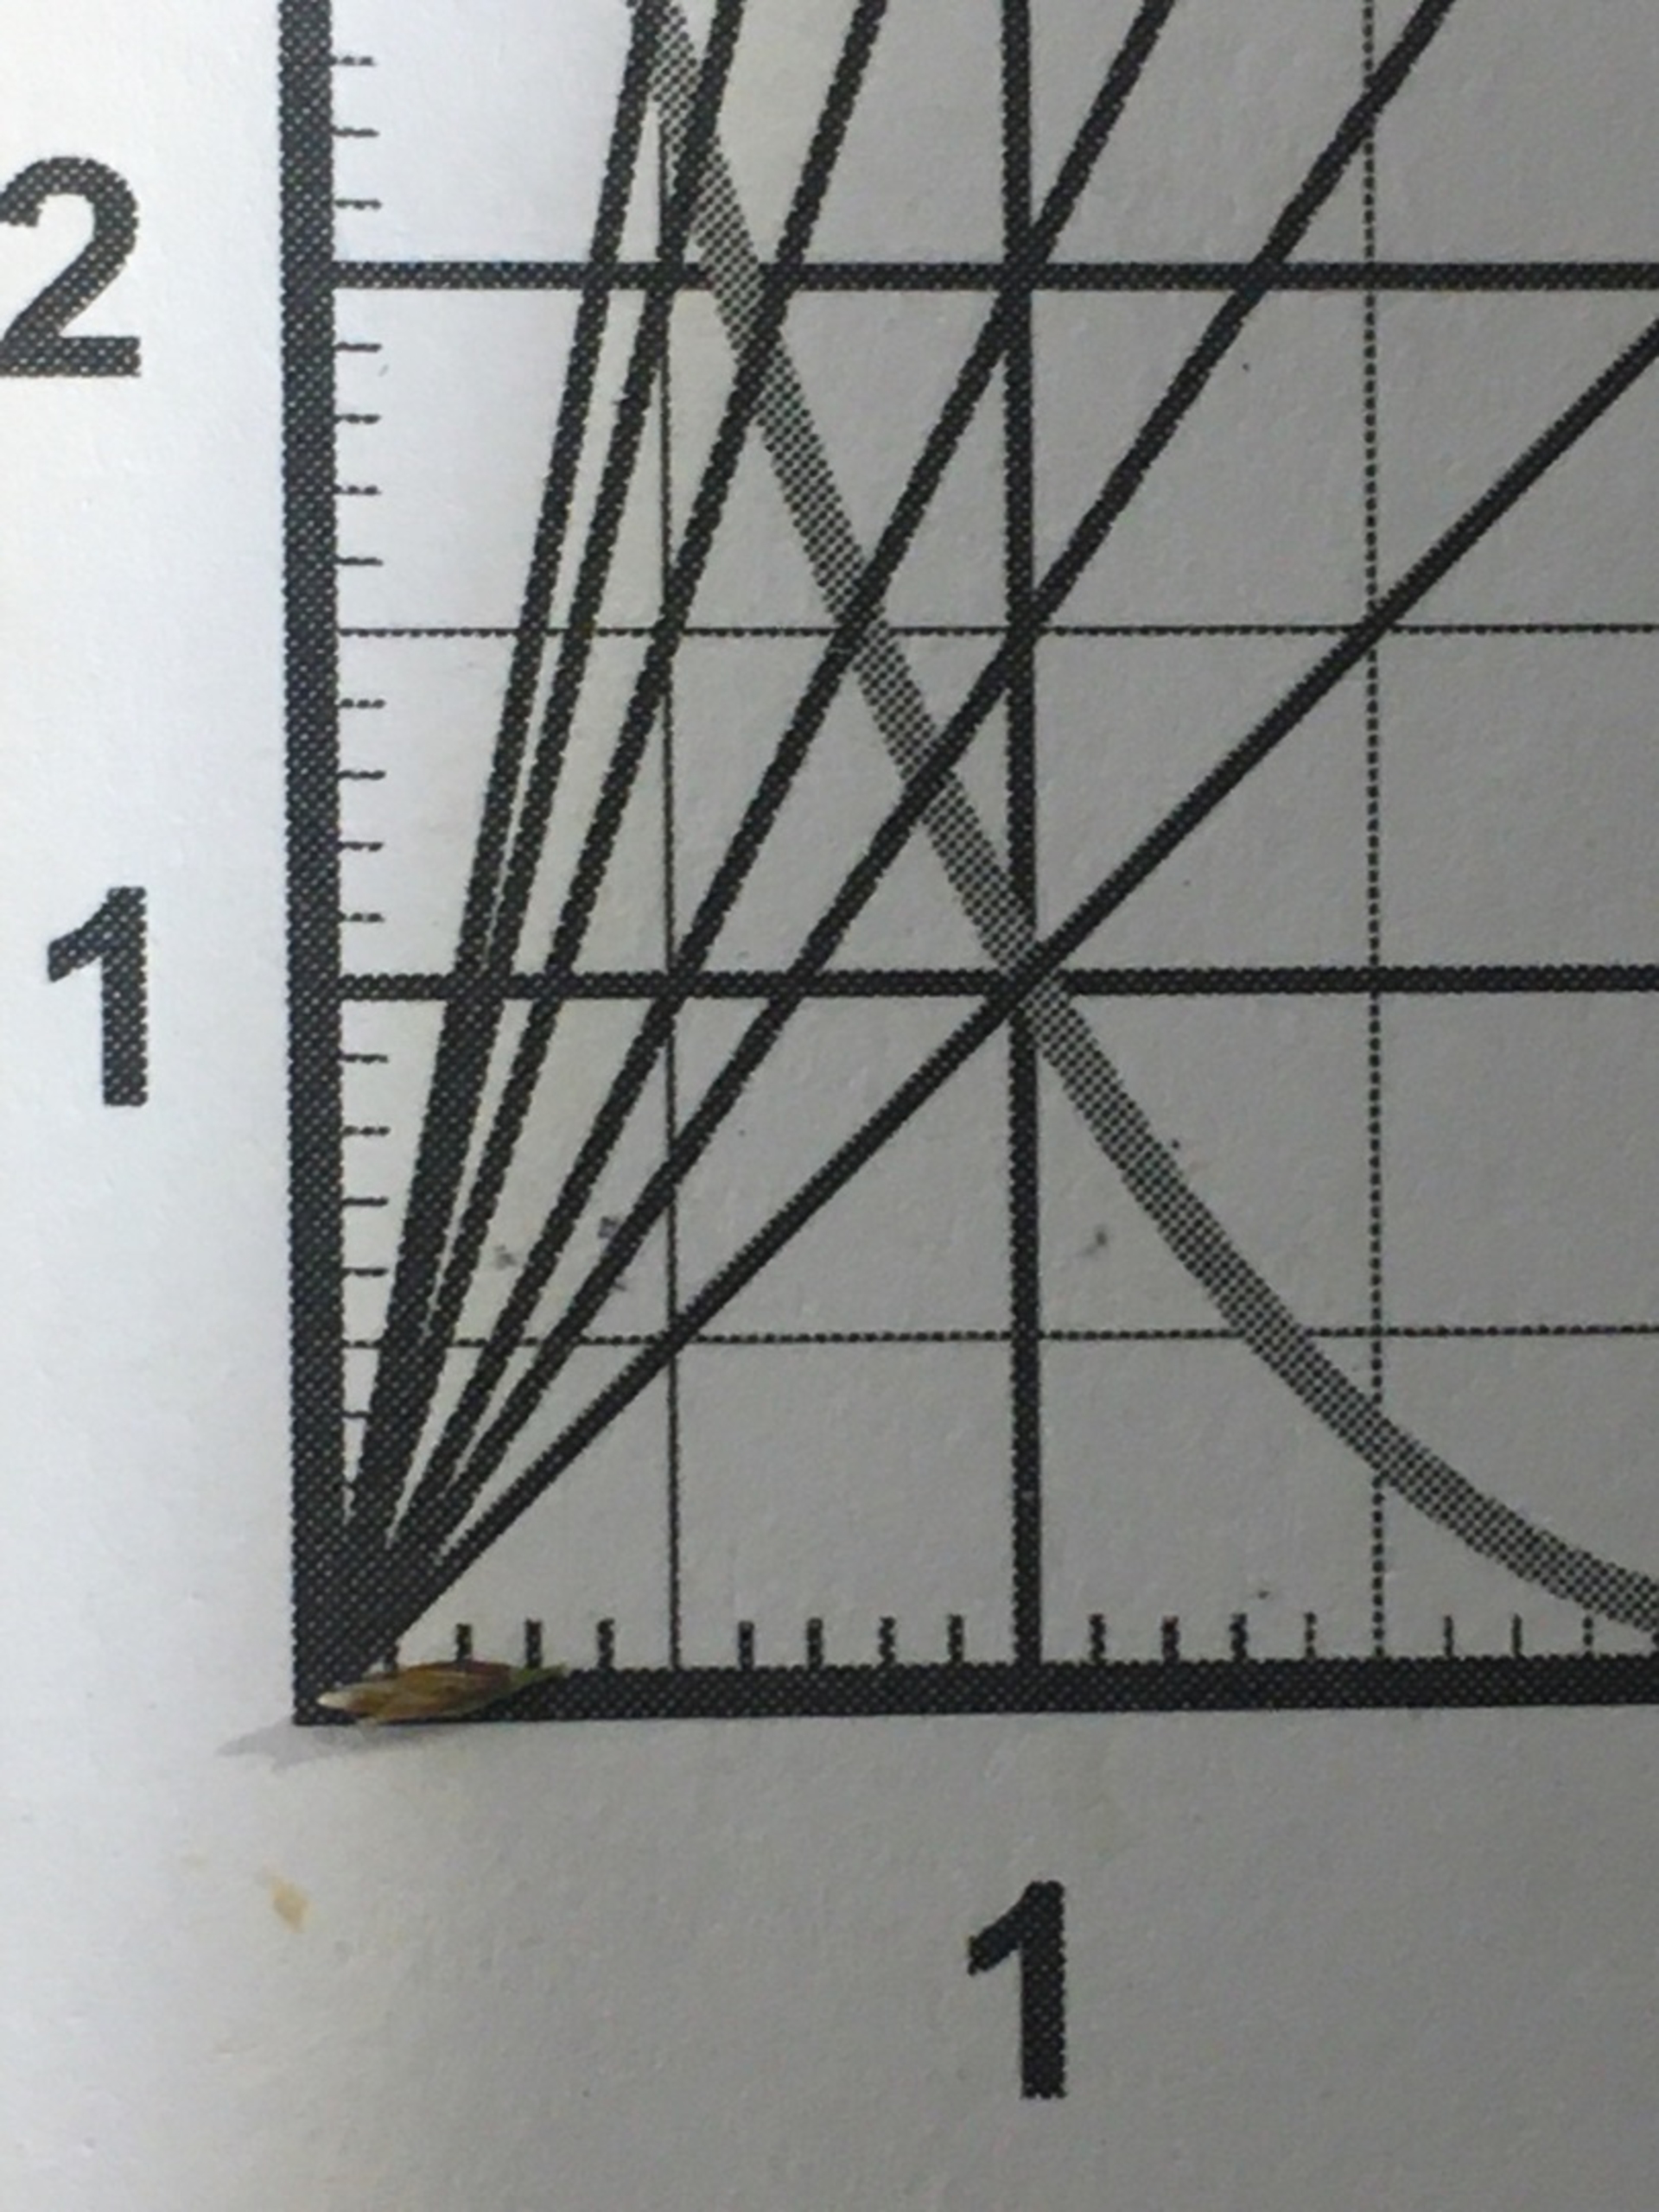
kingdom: Plantae
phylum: Tracheophyta
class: Liliopsida
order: Poales
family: Poaceae
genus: Deschampsia
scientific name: Deschampsia cespitosa
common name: Mose-bunke
